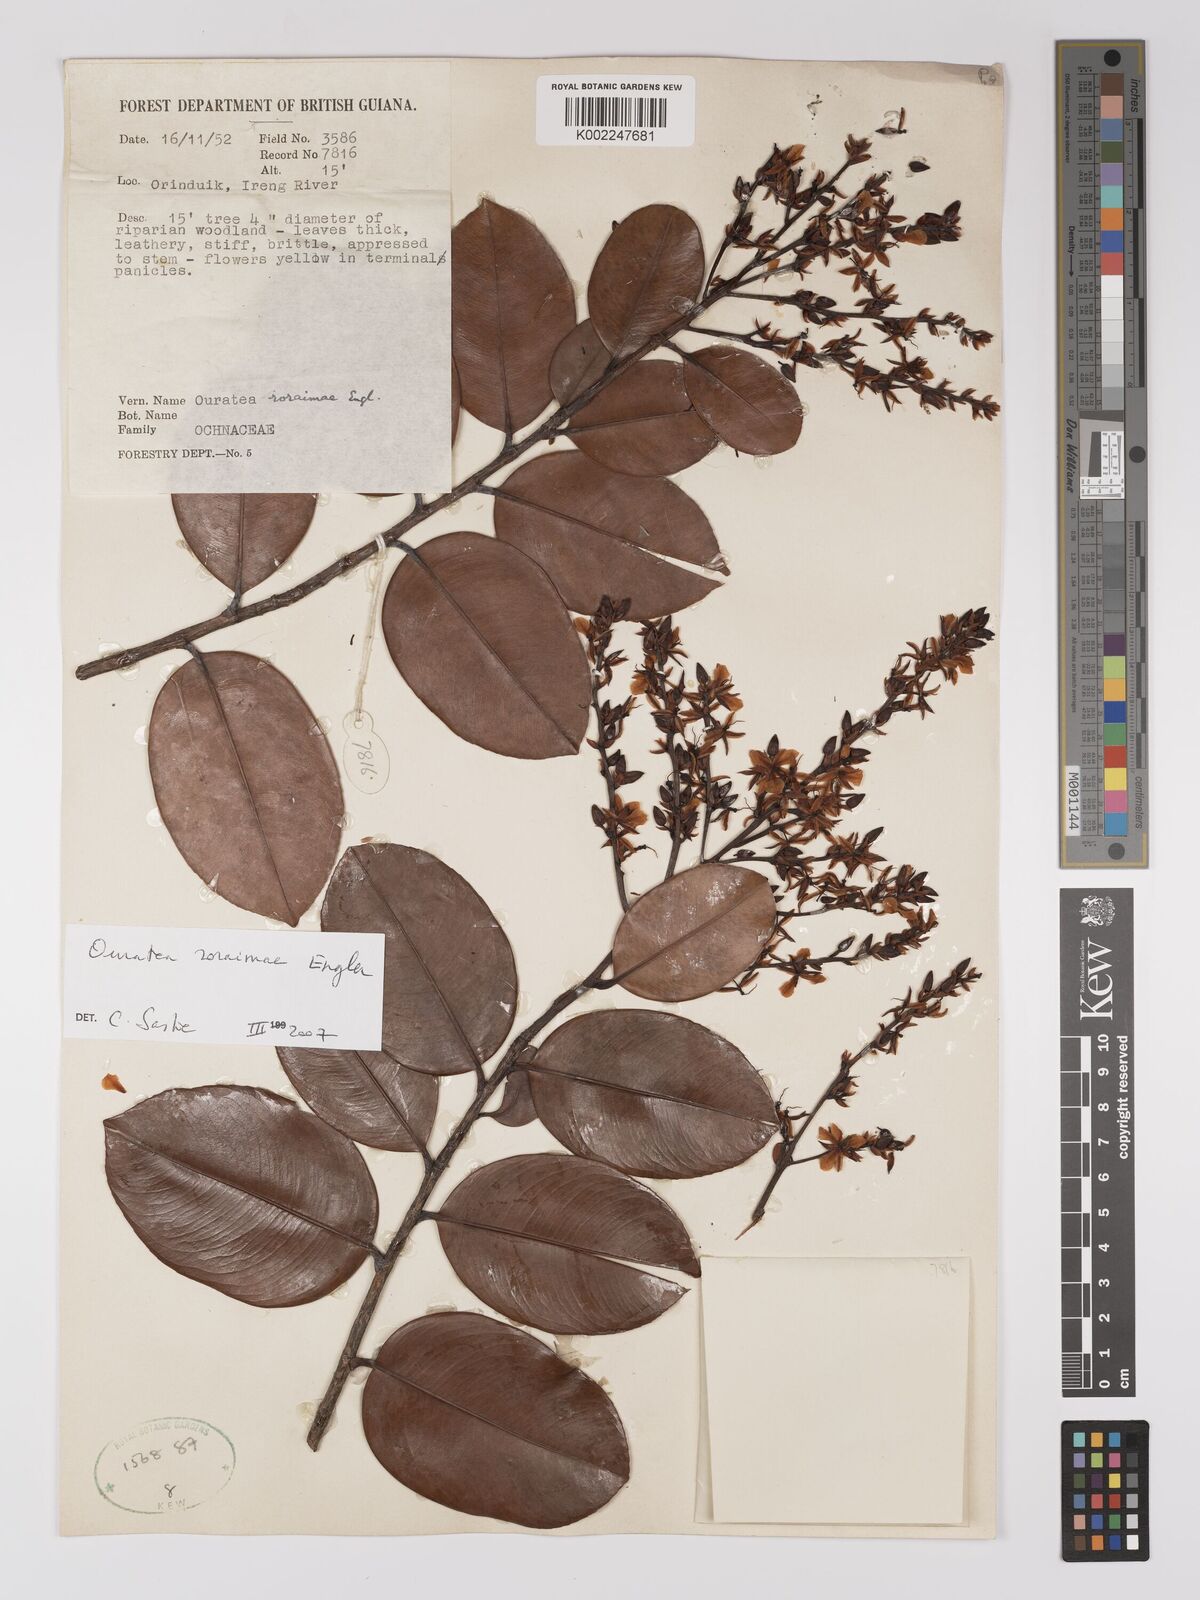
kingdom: Plantae
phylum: Tracheophyta
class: Magnoliopsida
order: Malpighiales
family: Ochnaceae
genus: Ouratea
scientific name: Ouratea roraimae
